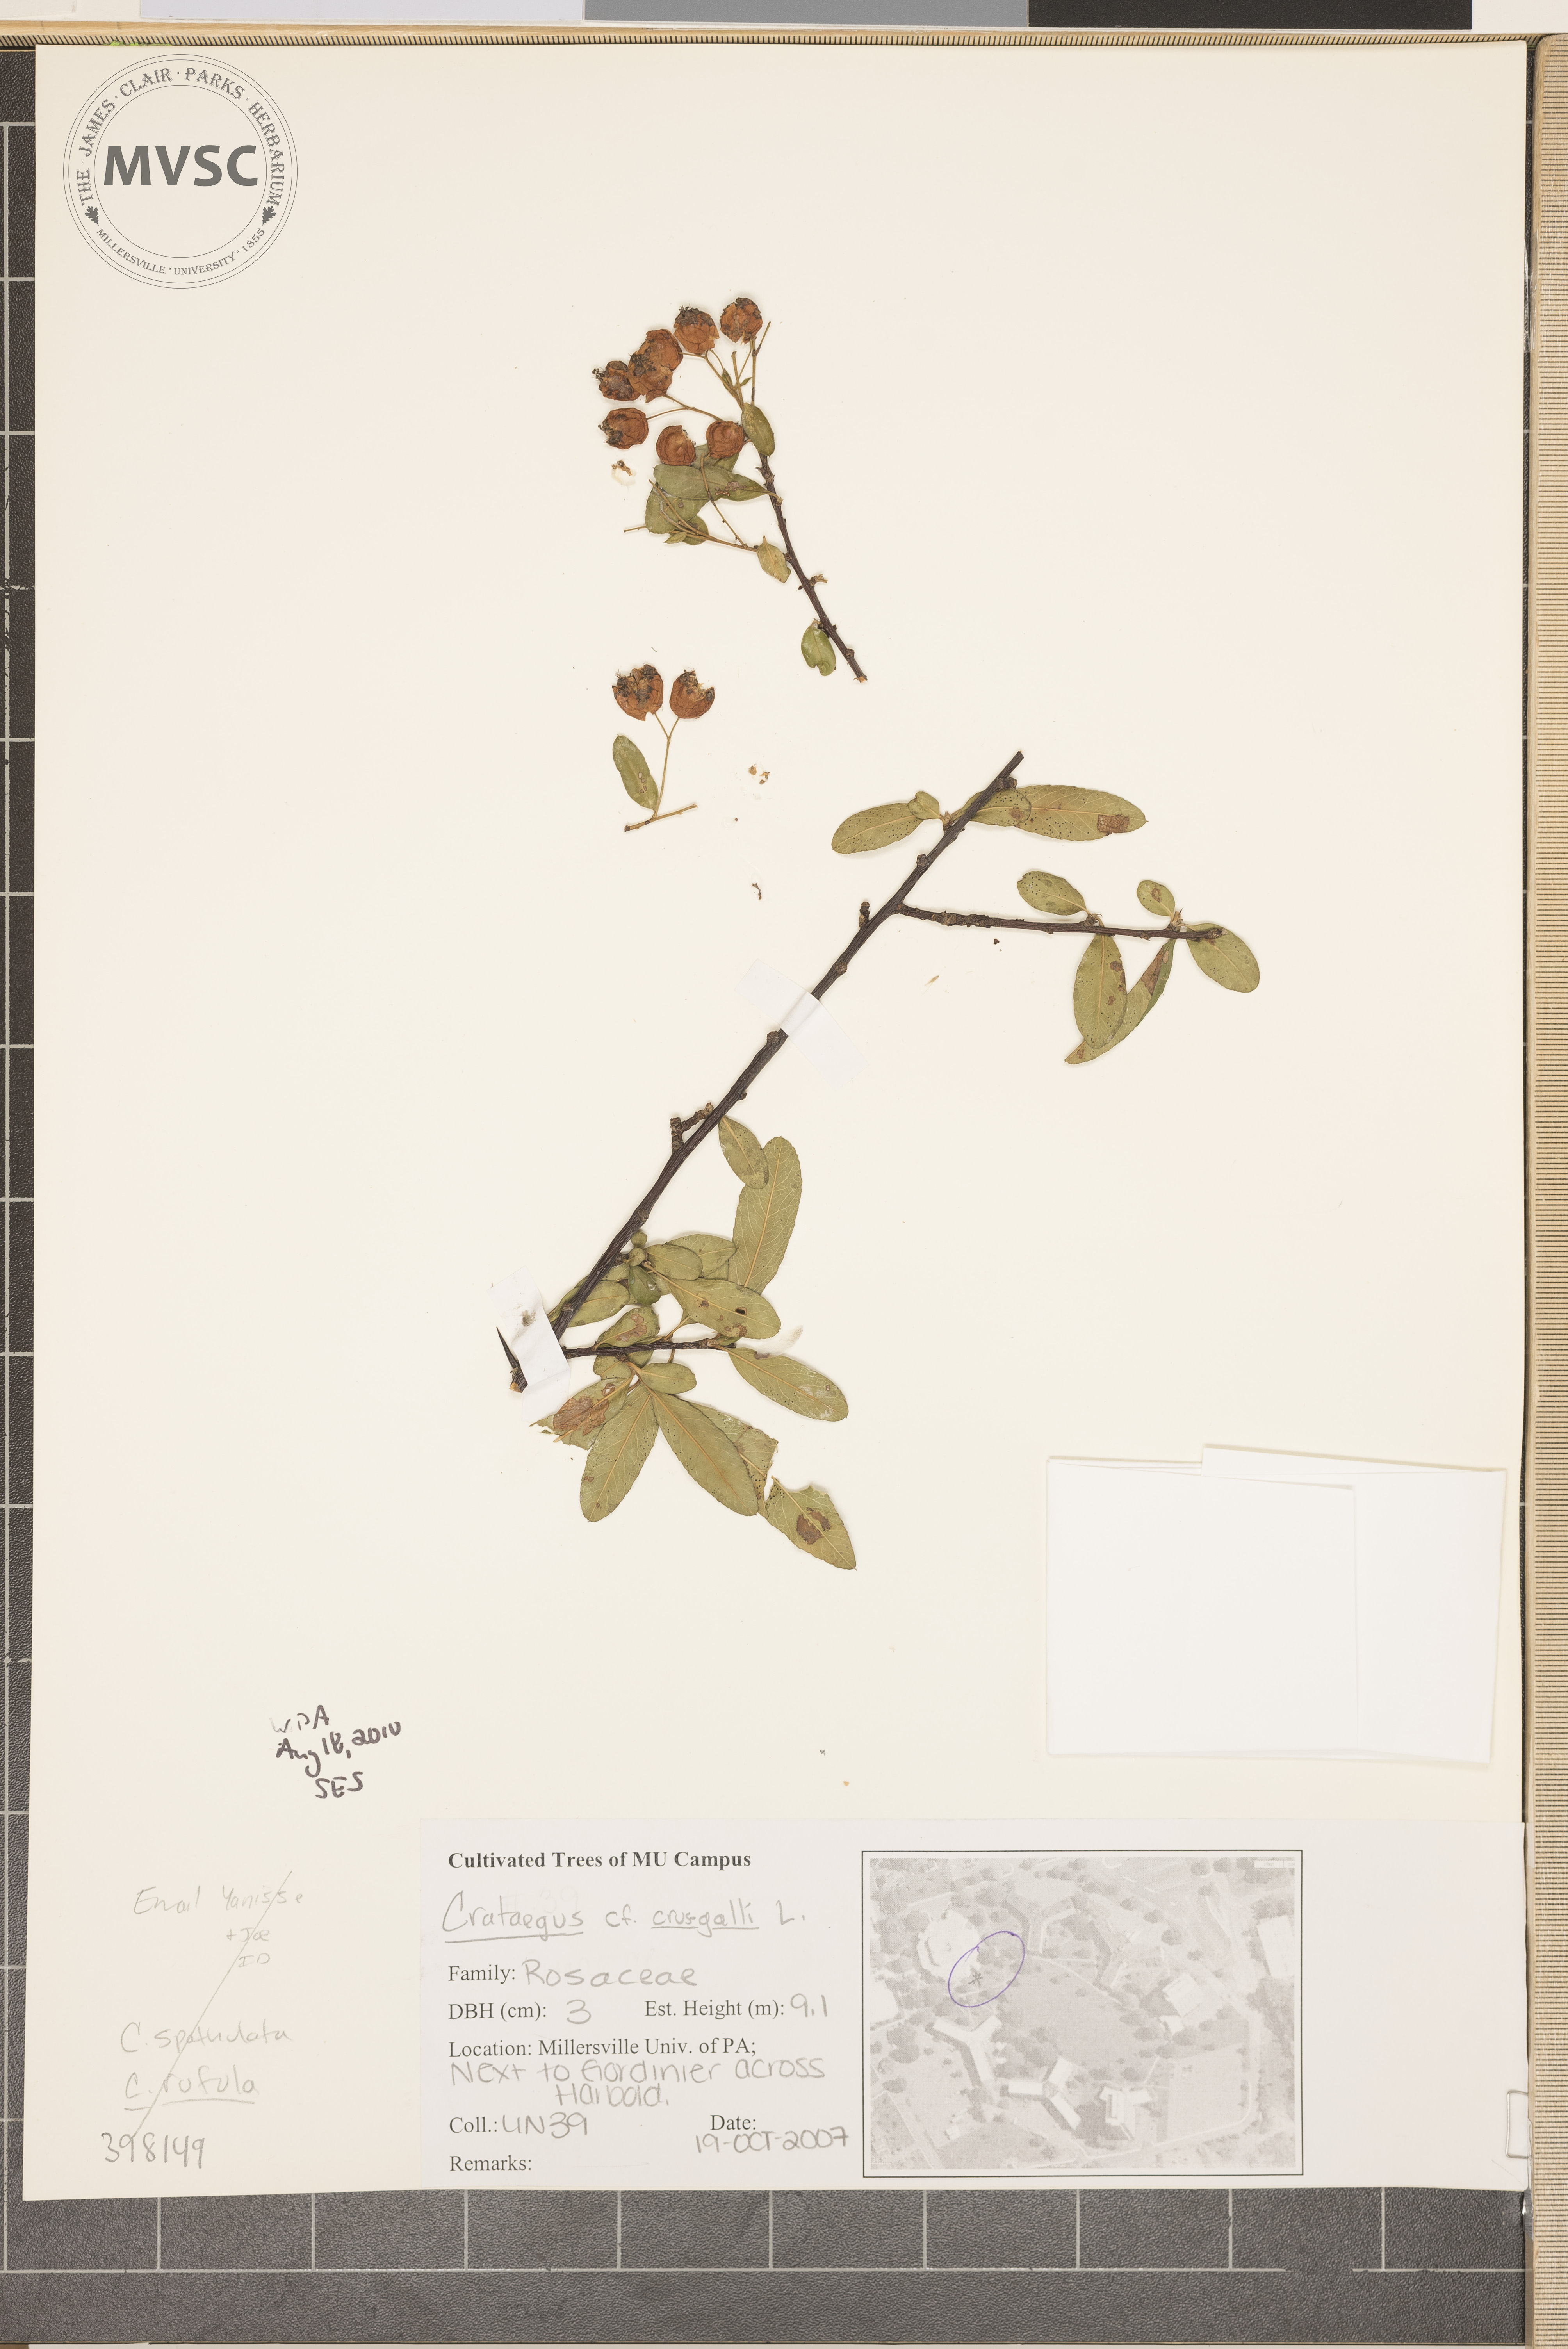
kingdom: Plantae
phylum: Tracheophyta
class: Magnoliopsida
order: Rosales
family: Rosaceae
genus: Crataegus
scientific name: Crataegus crus-galli
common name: Red-fruited hawthorn
